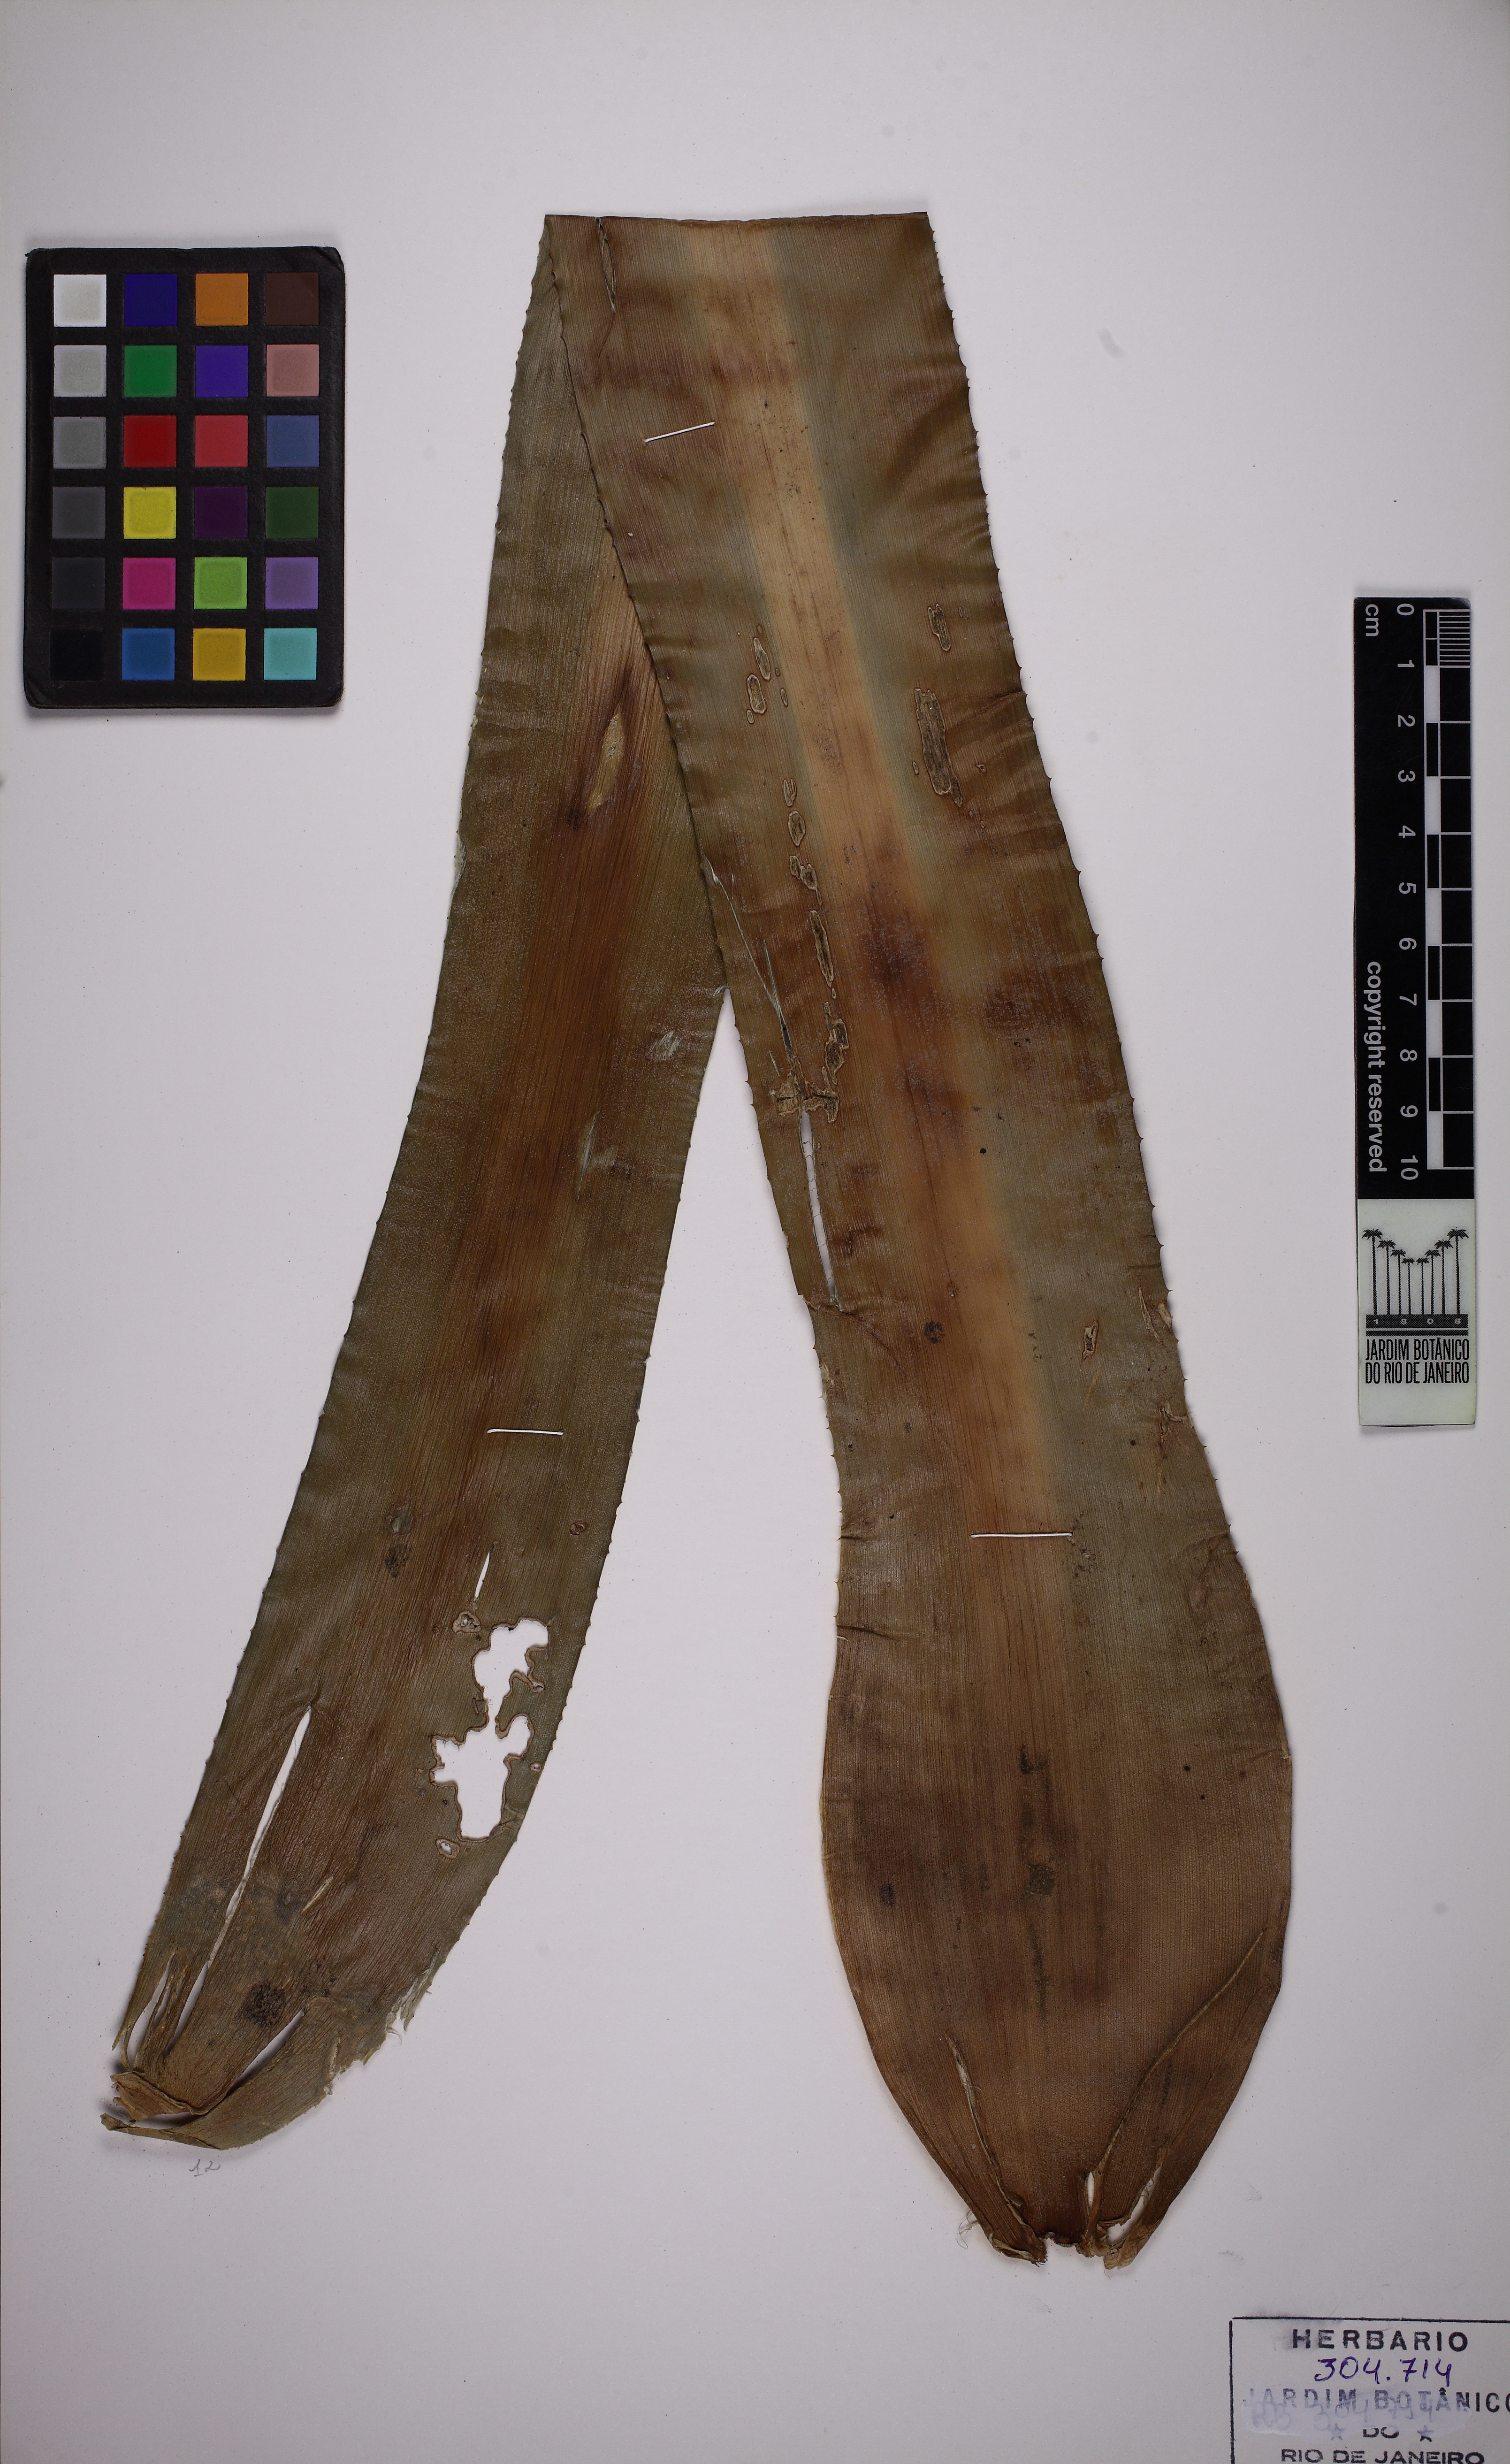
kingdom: Plantae
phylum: Tracheophyta
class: Liliopsida
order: Poales
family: Bromeliaceae
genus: Edmundoa
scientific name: Edmundoa lindenii
